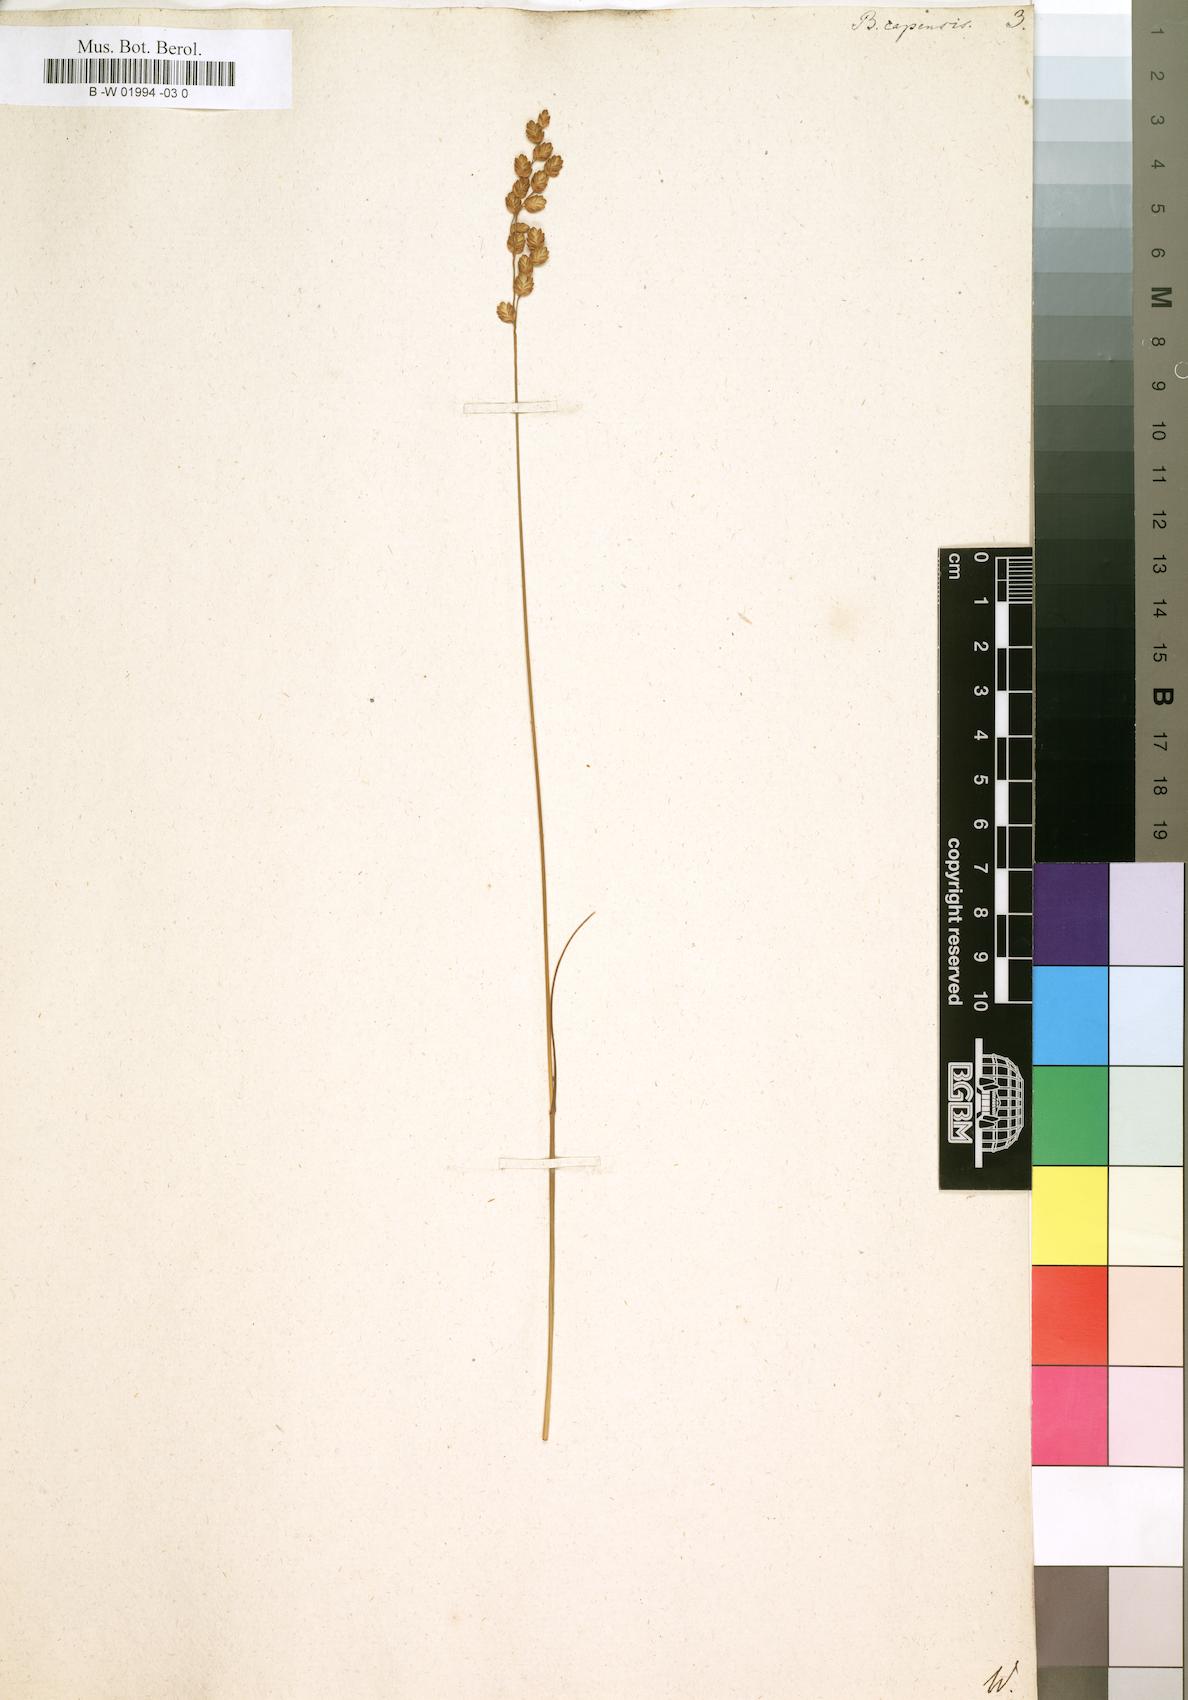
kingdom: Plantae
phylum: Tracheophyta
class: Liliopsida
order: Poales
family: Poaceae
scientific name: Poaceae
